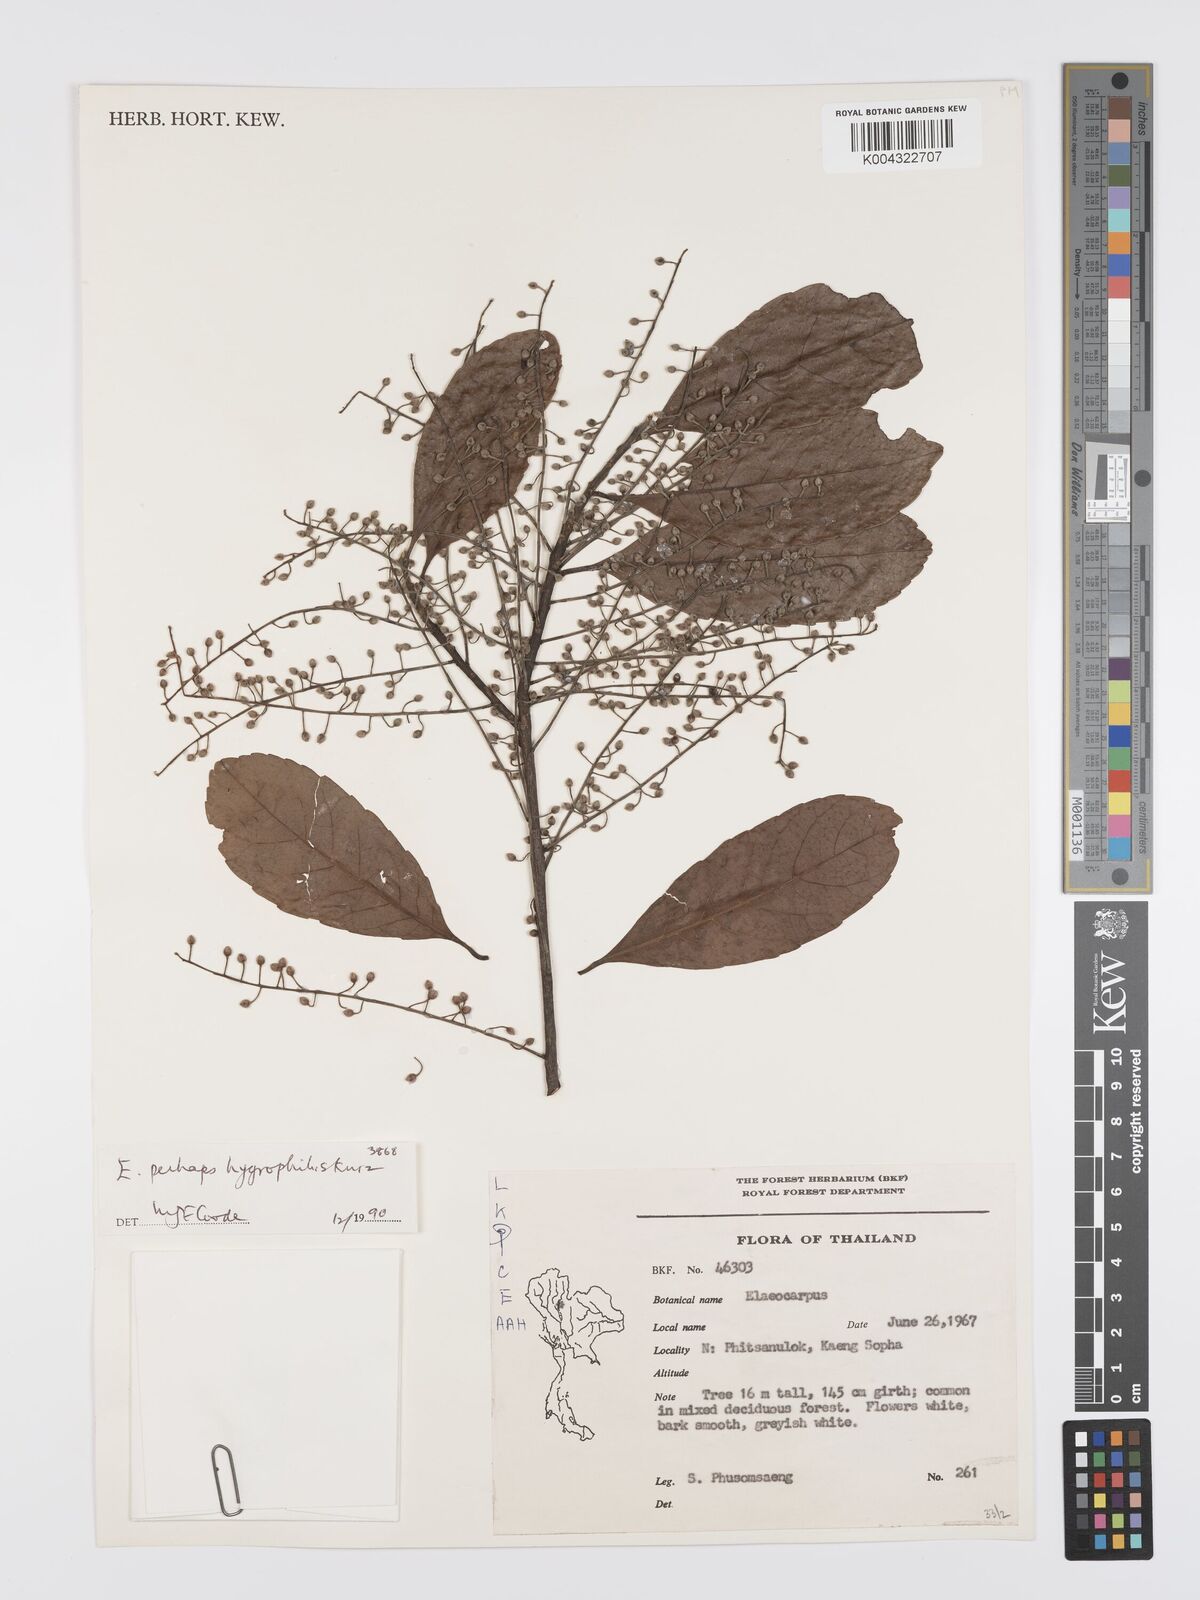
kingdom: Plantae
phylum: Tracheophyta
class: Magnoliopsida
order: Oxalidales
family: Elaeocarpaceae
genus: Elaeocarpus
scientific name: Elaeocarpus hygrophilus
